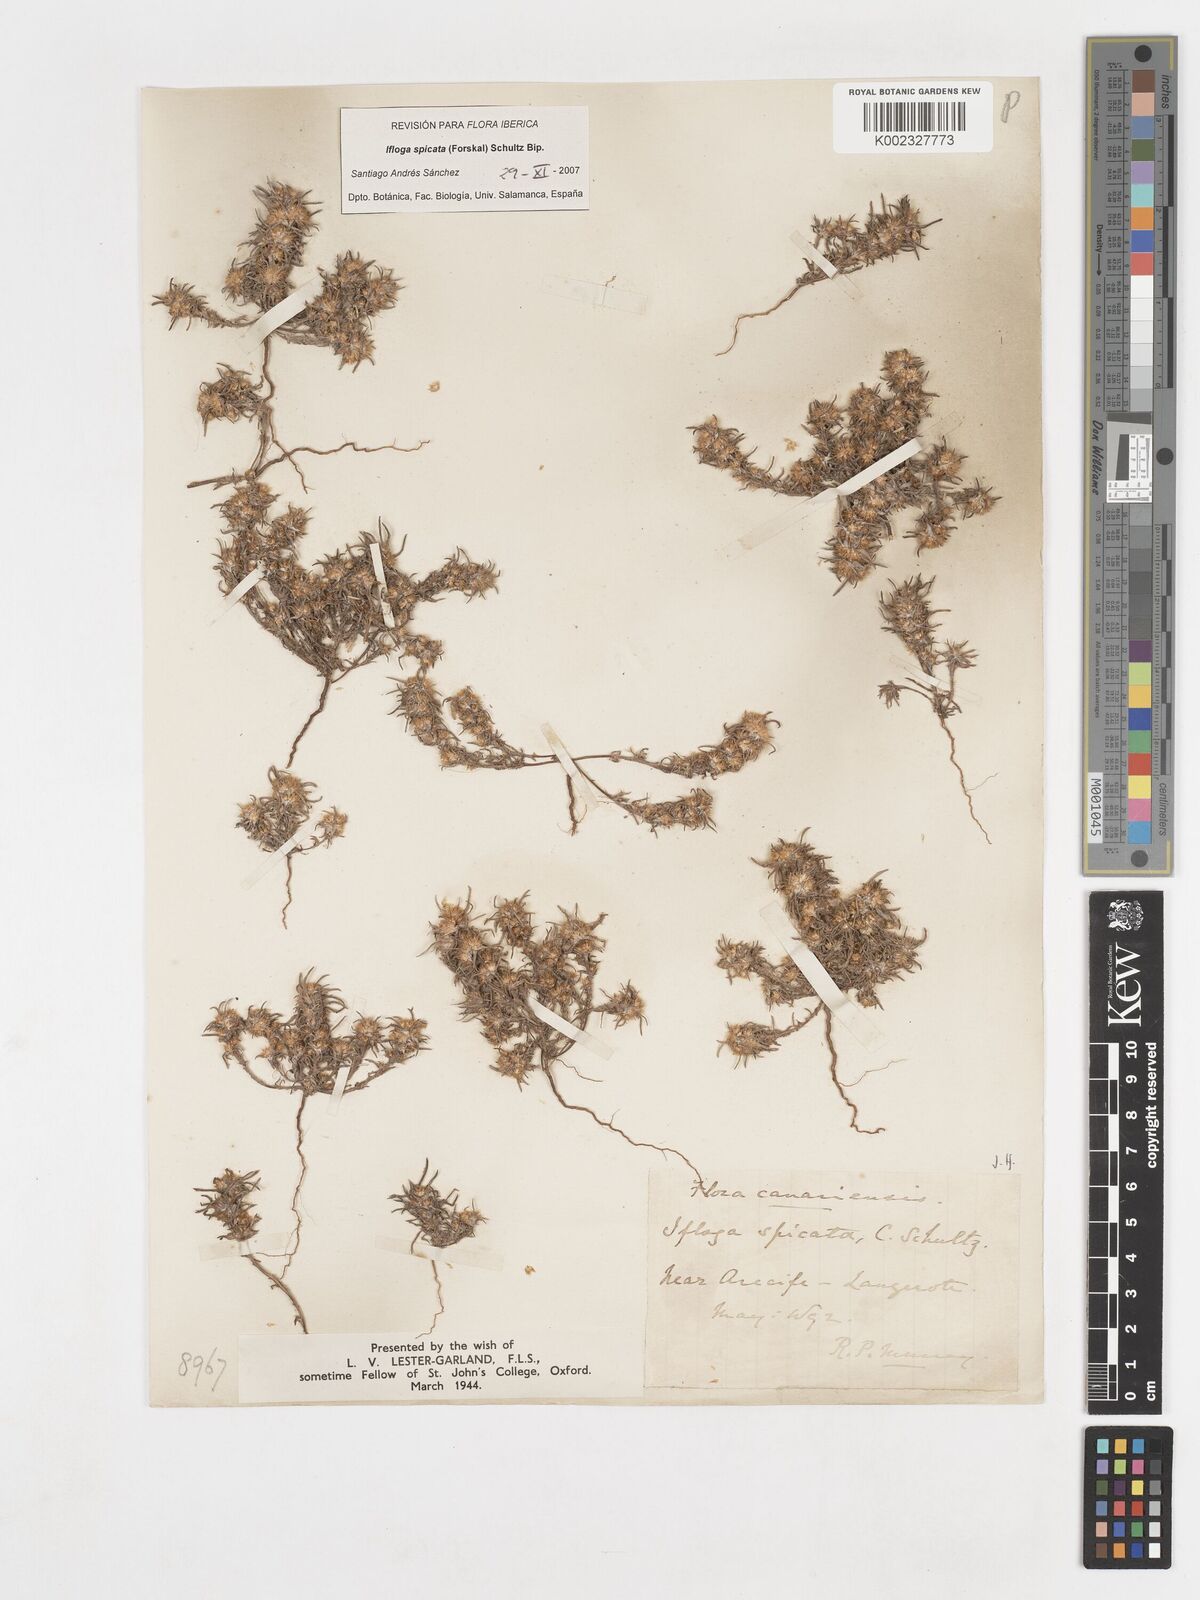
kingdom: Plantae
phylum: Tracheophyta
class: Magnoliopsida
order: Asterales
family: Asteraceae
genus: Ifloga
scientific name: Ifloga spicata
